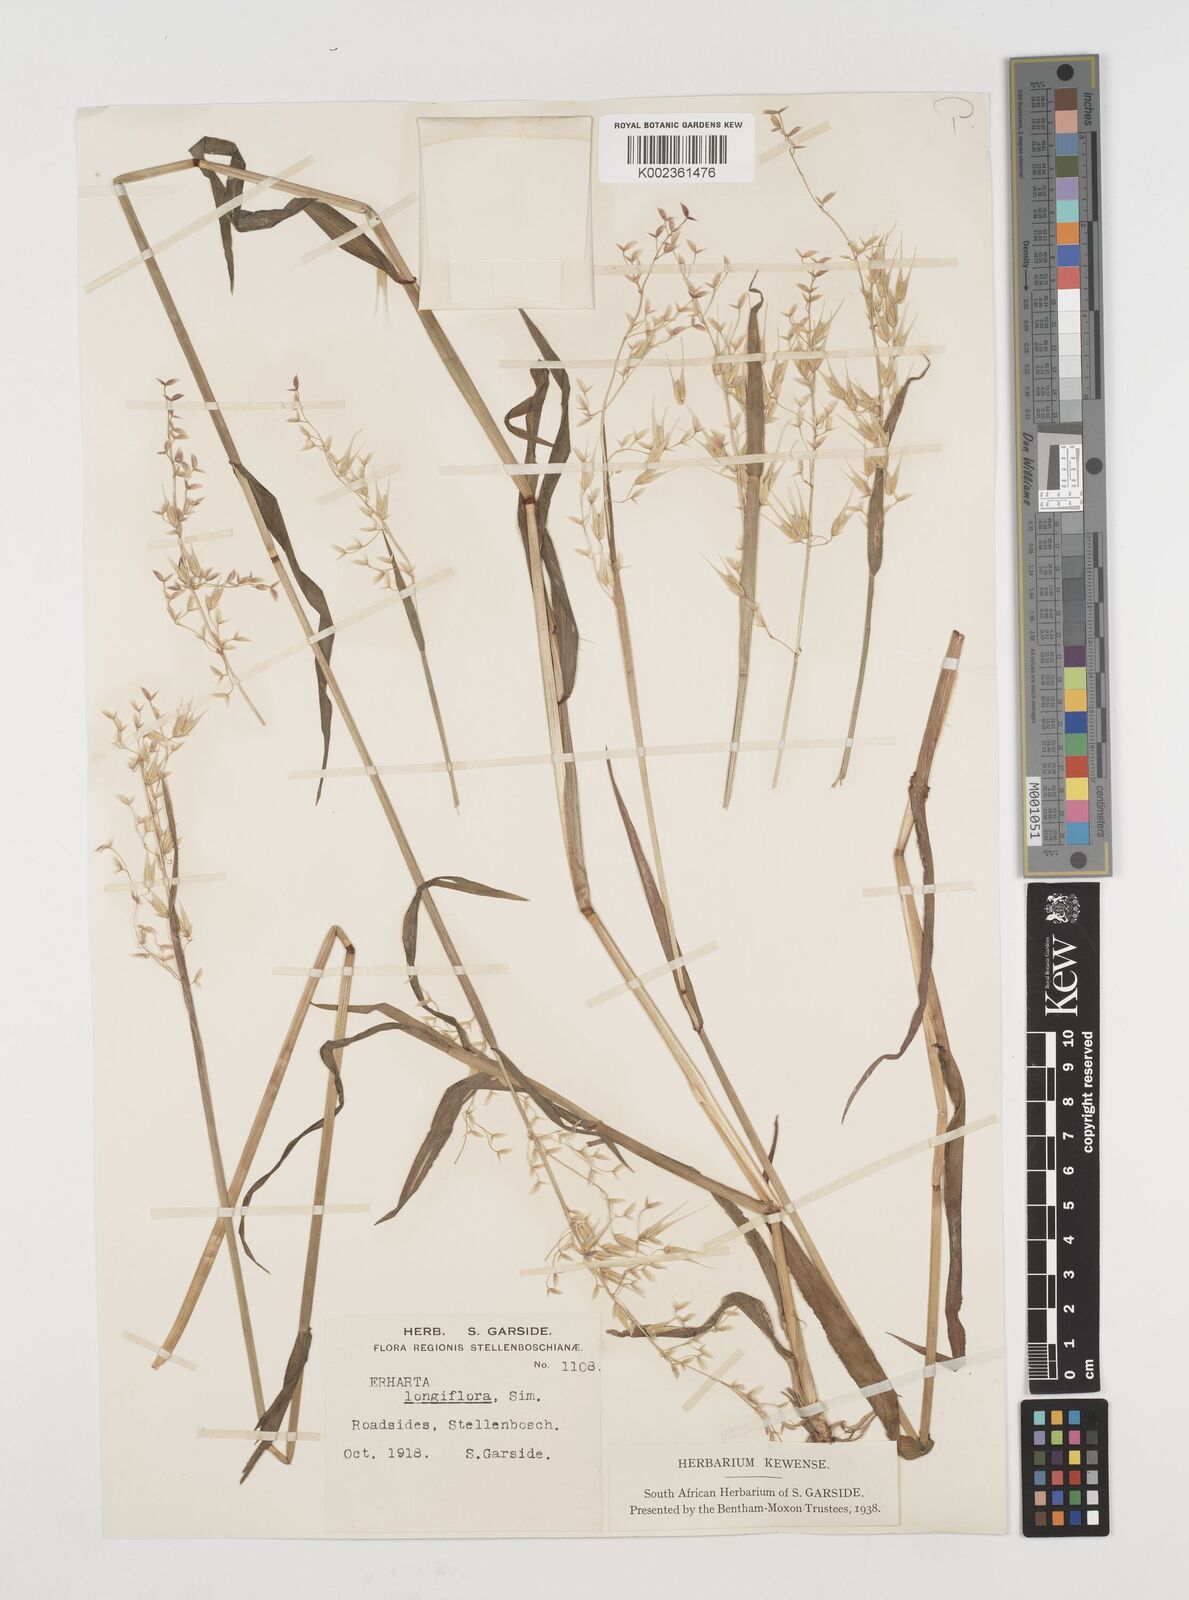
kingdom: Plantae
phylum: Tracheophyta
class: Liliopsida
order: Poales
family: Poaceae
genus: Ehrharta
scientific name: Ehrharta longiflora
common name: Longflowered veldtgrass
